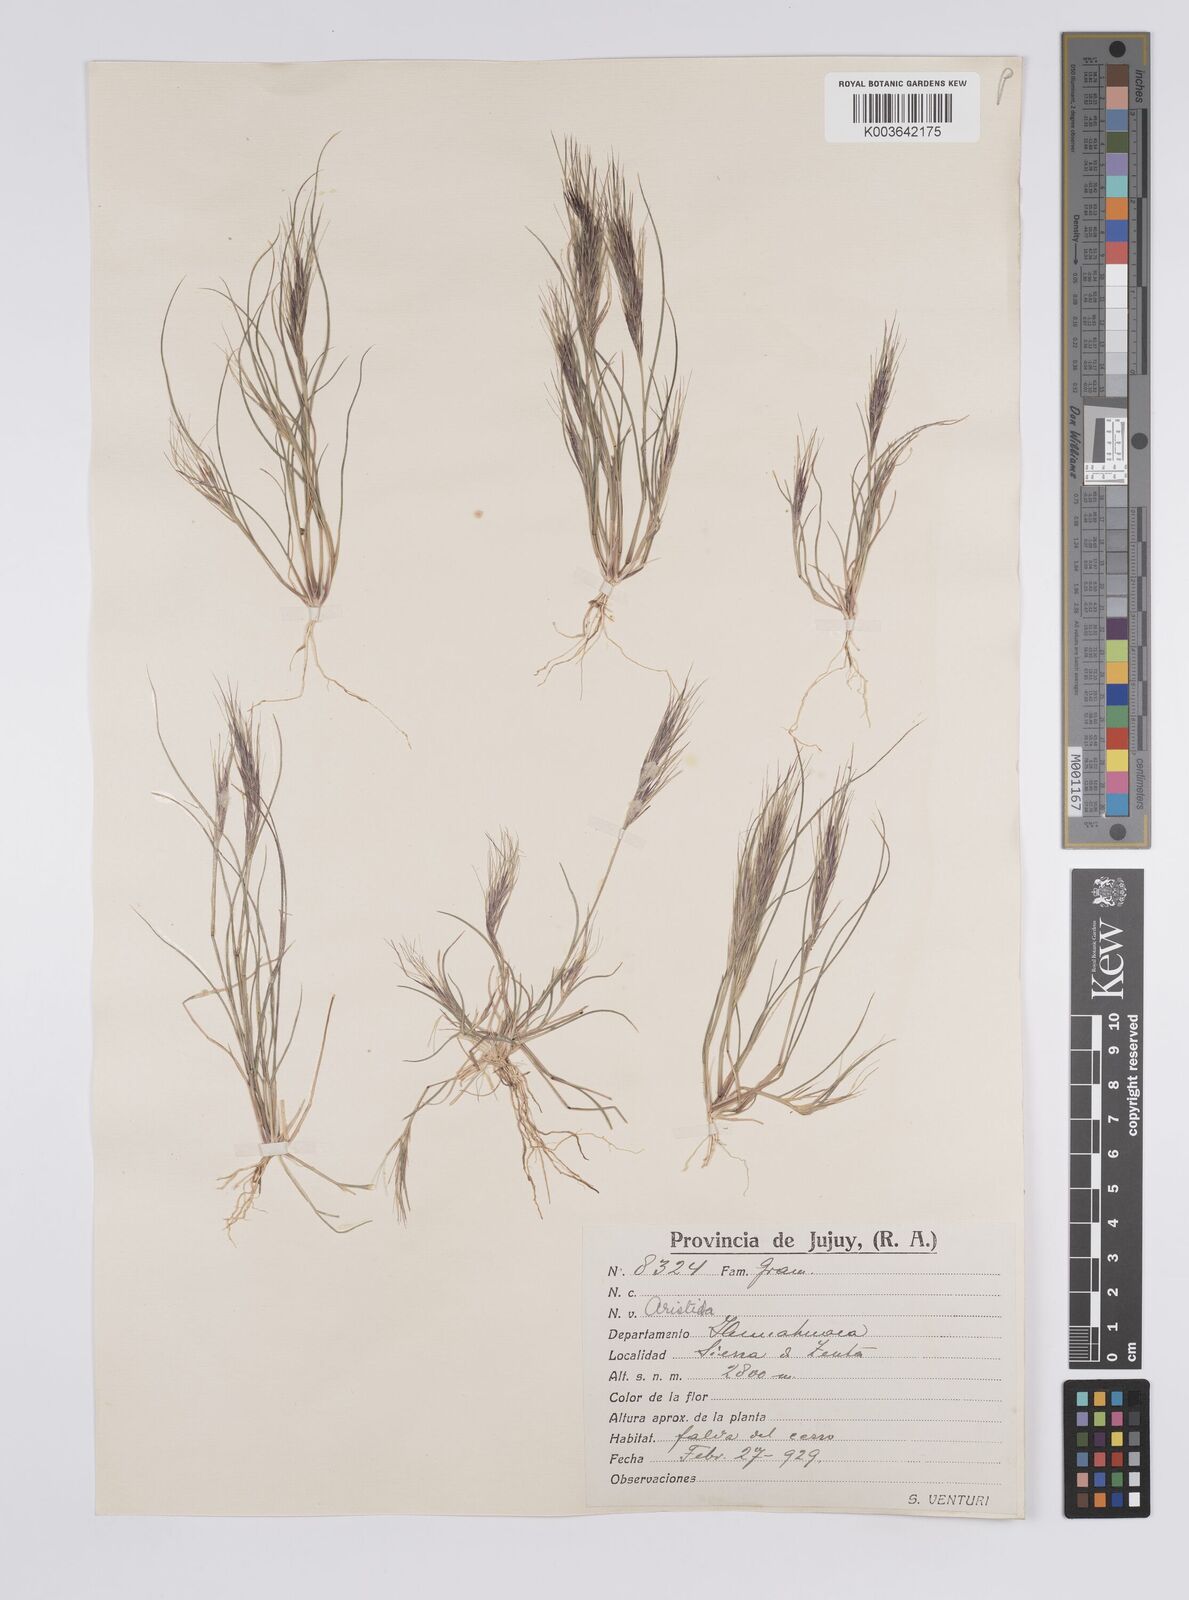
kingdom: Plantae
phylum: Tracheophyta
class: Liliopsida
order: Poales
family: Poaceae
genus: Aristida
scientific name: Aristida
